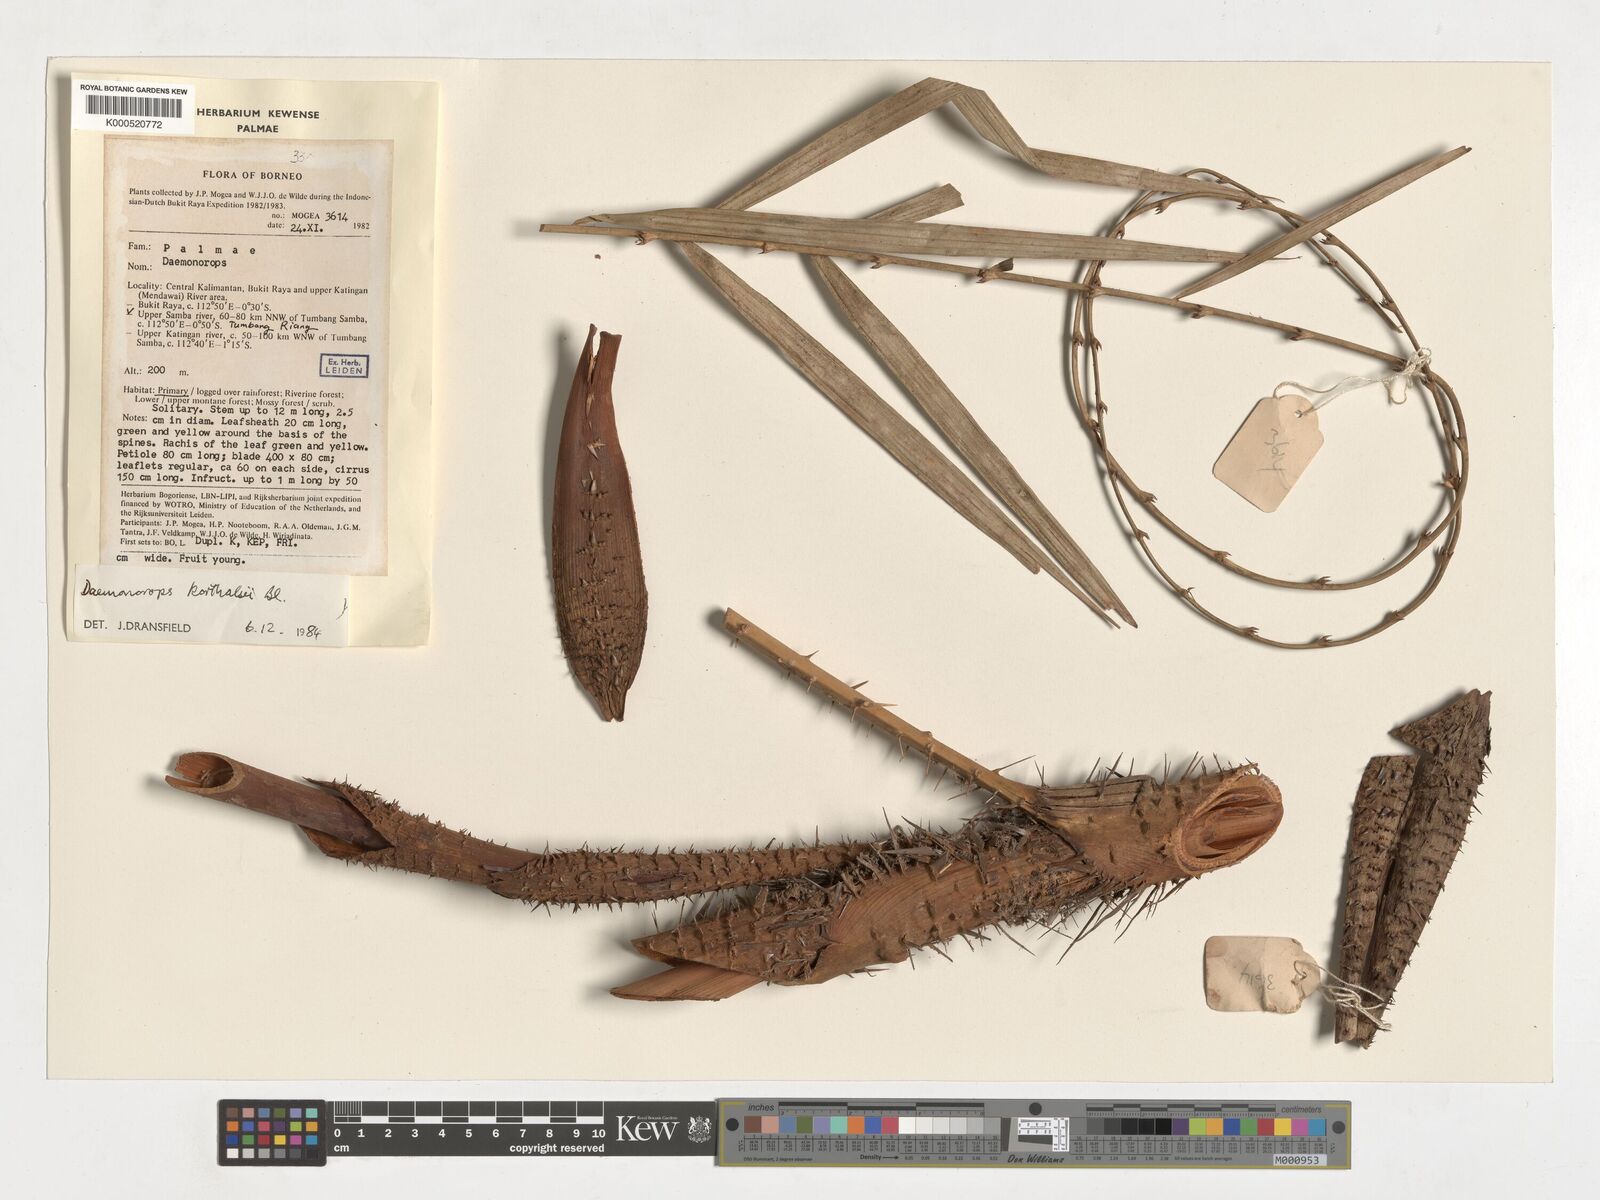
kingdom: Plantae
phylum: Tracheophyta
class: Liliopsida
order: Arecales
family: Arecaceae
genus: Calamus
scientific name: Calamus hirsutus
